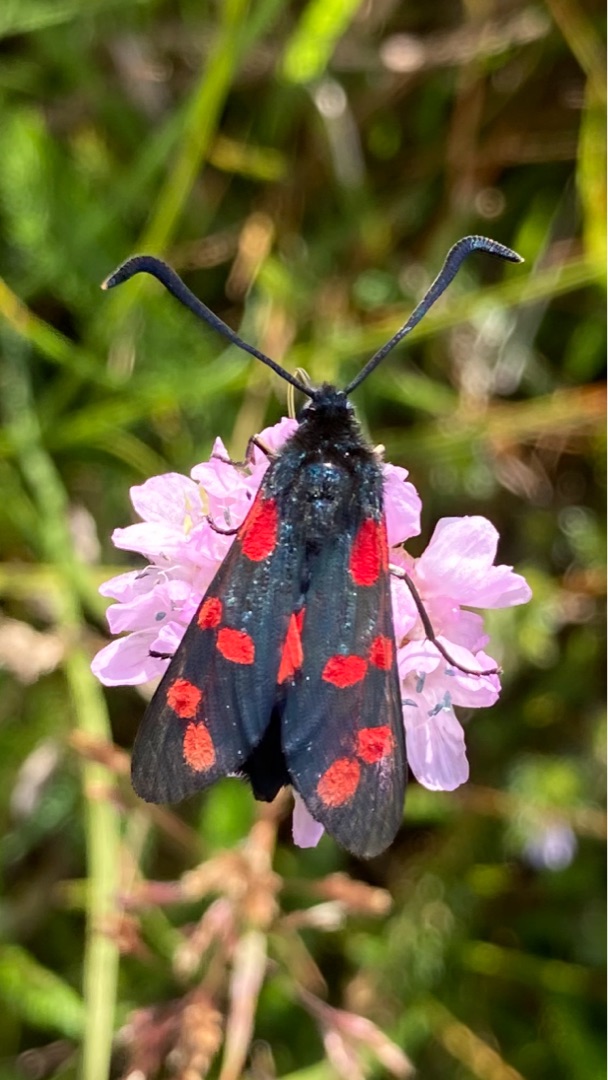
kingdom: Animalia
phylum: Arthropoda
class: Insecta
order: Lepidoptera
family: Zygaenidae
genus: Zygaena
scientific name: Zygaena filipendulae
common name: Seksplettet køllesværmer
